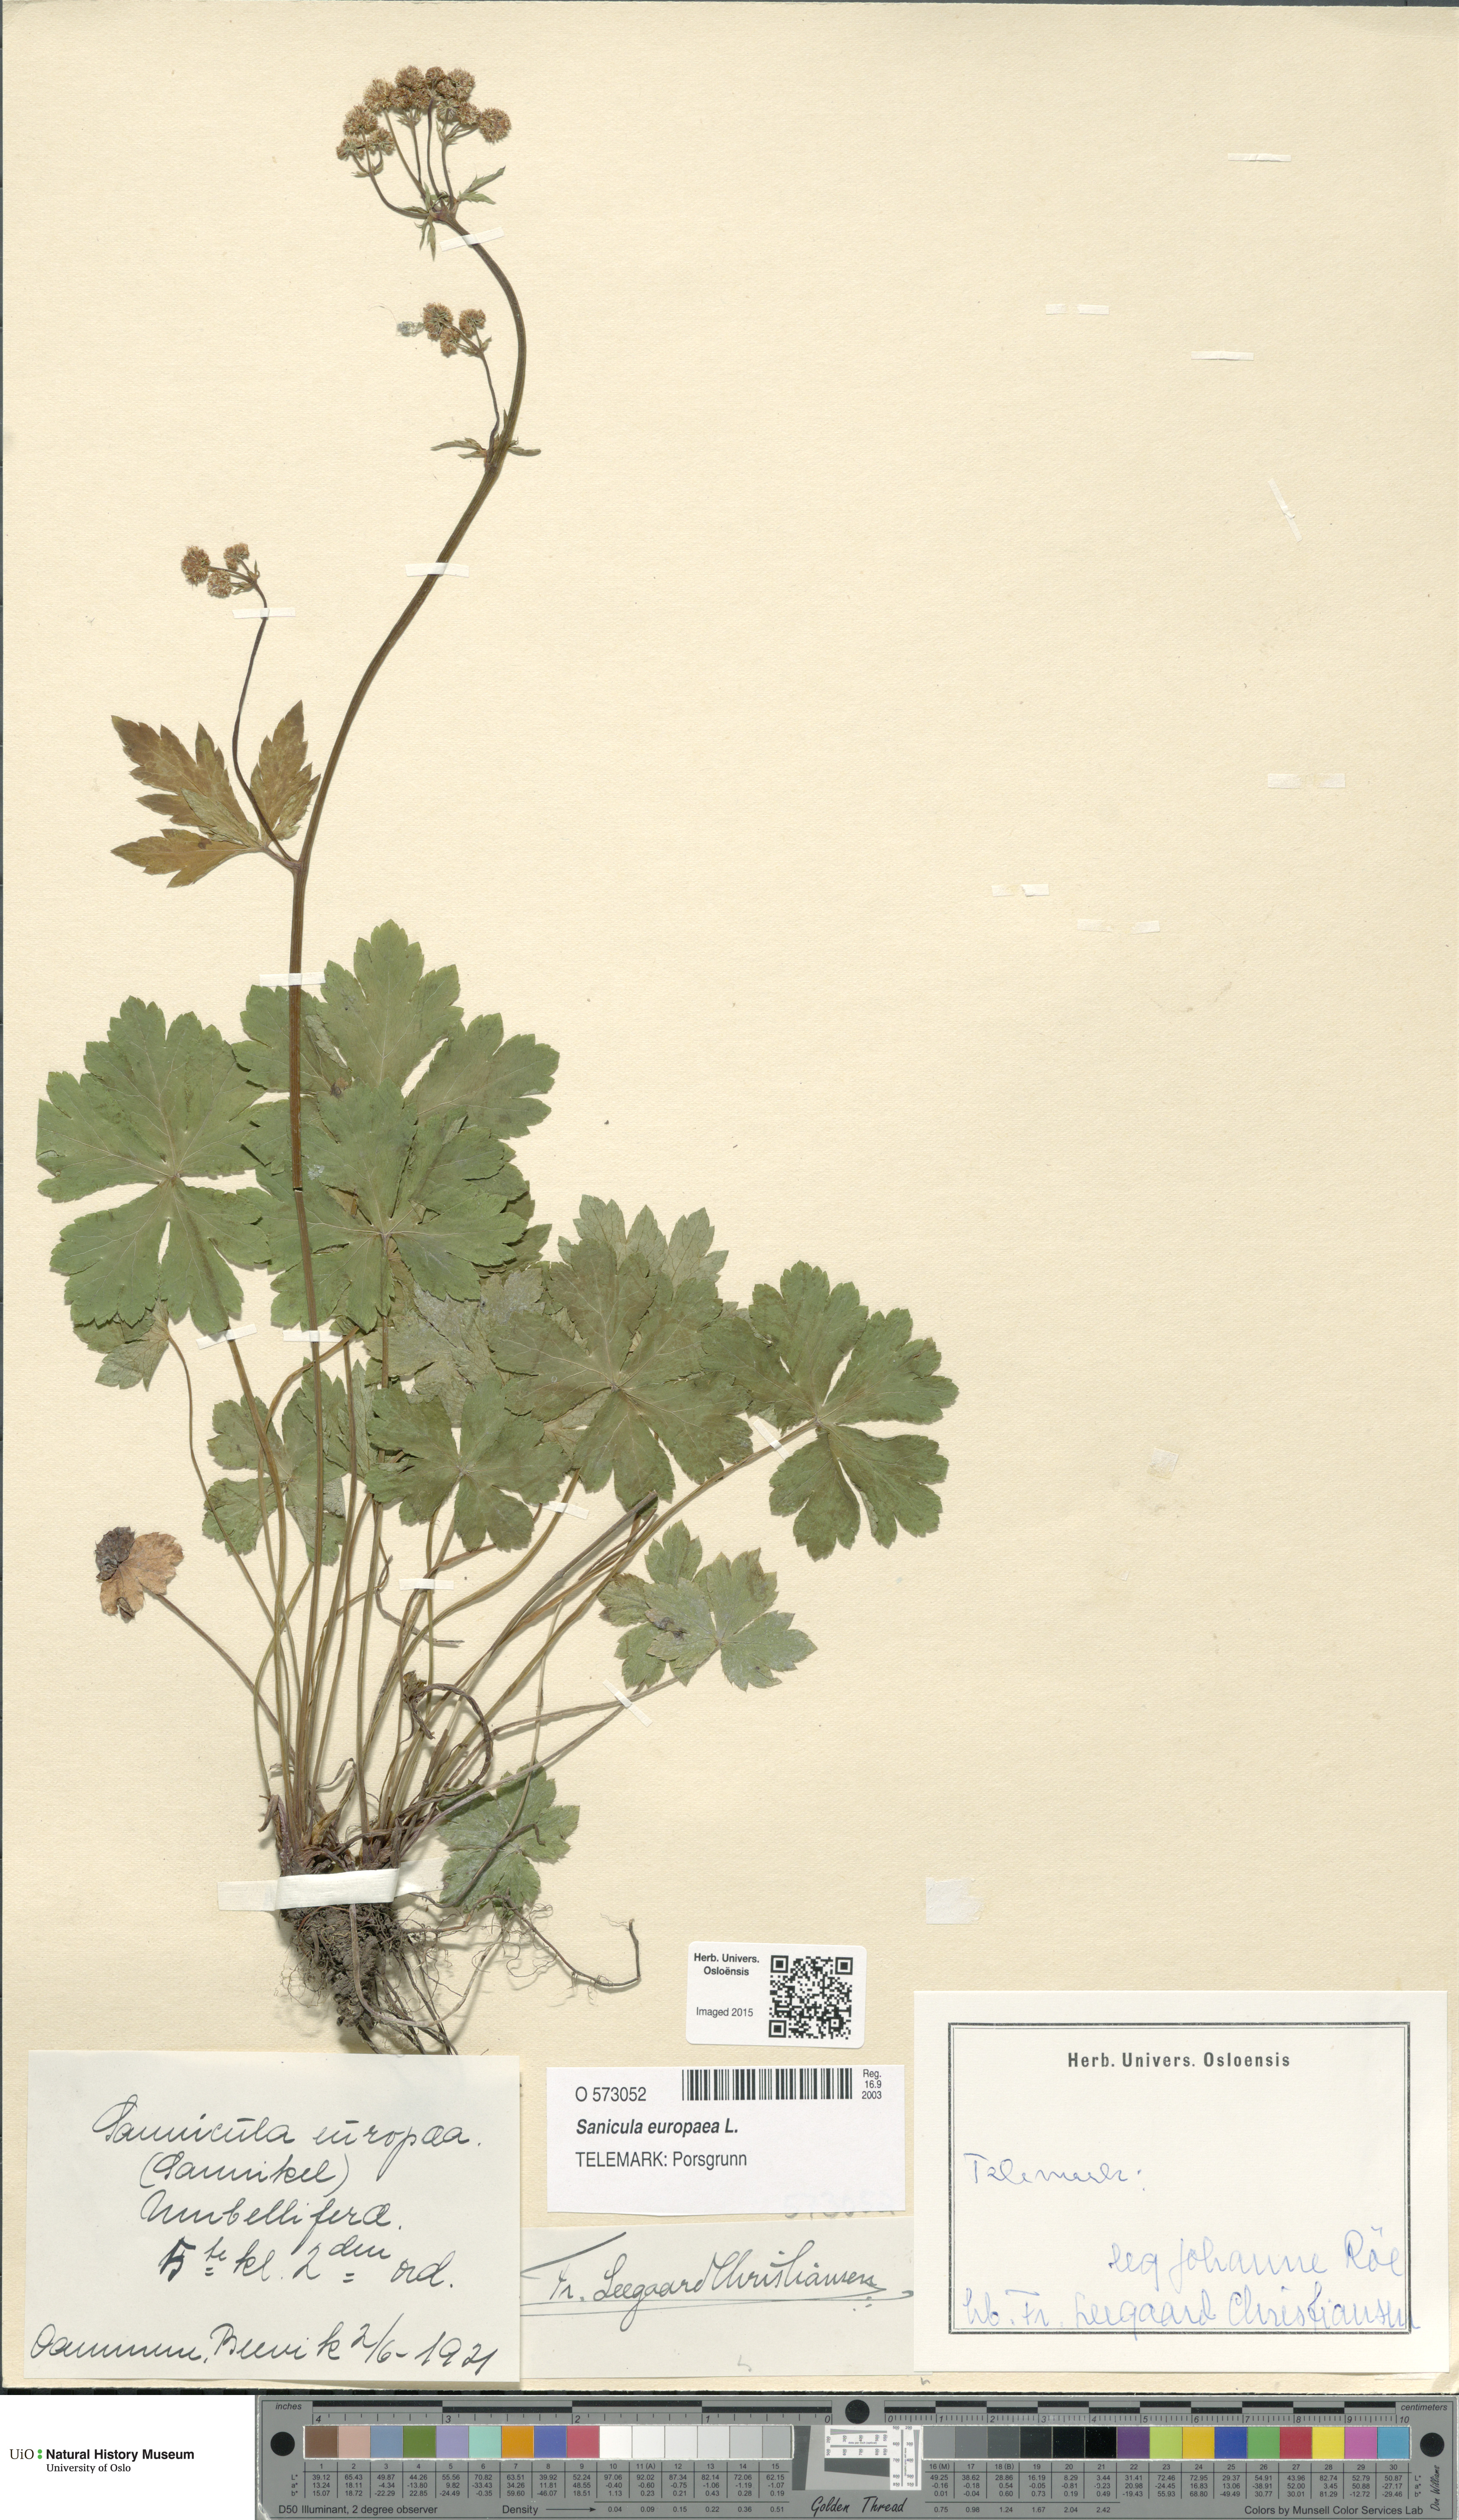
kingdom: Plantae
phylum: Tracheophyta
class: Magnoliopsida
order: Apiales
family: Apiaceae
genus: Sanicula
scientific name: Sanicula europaea
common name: Sanicle
